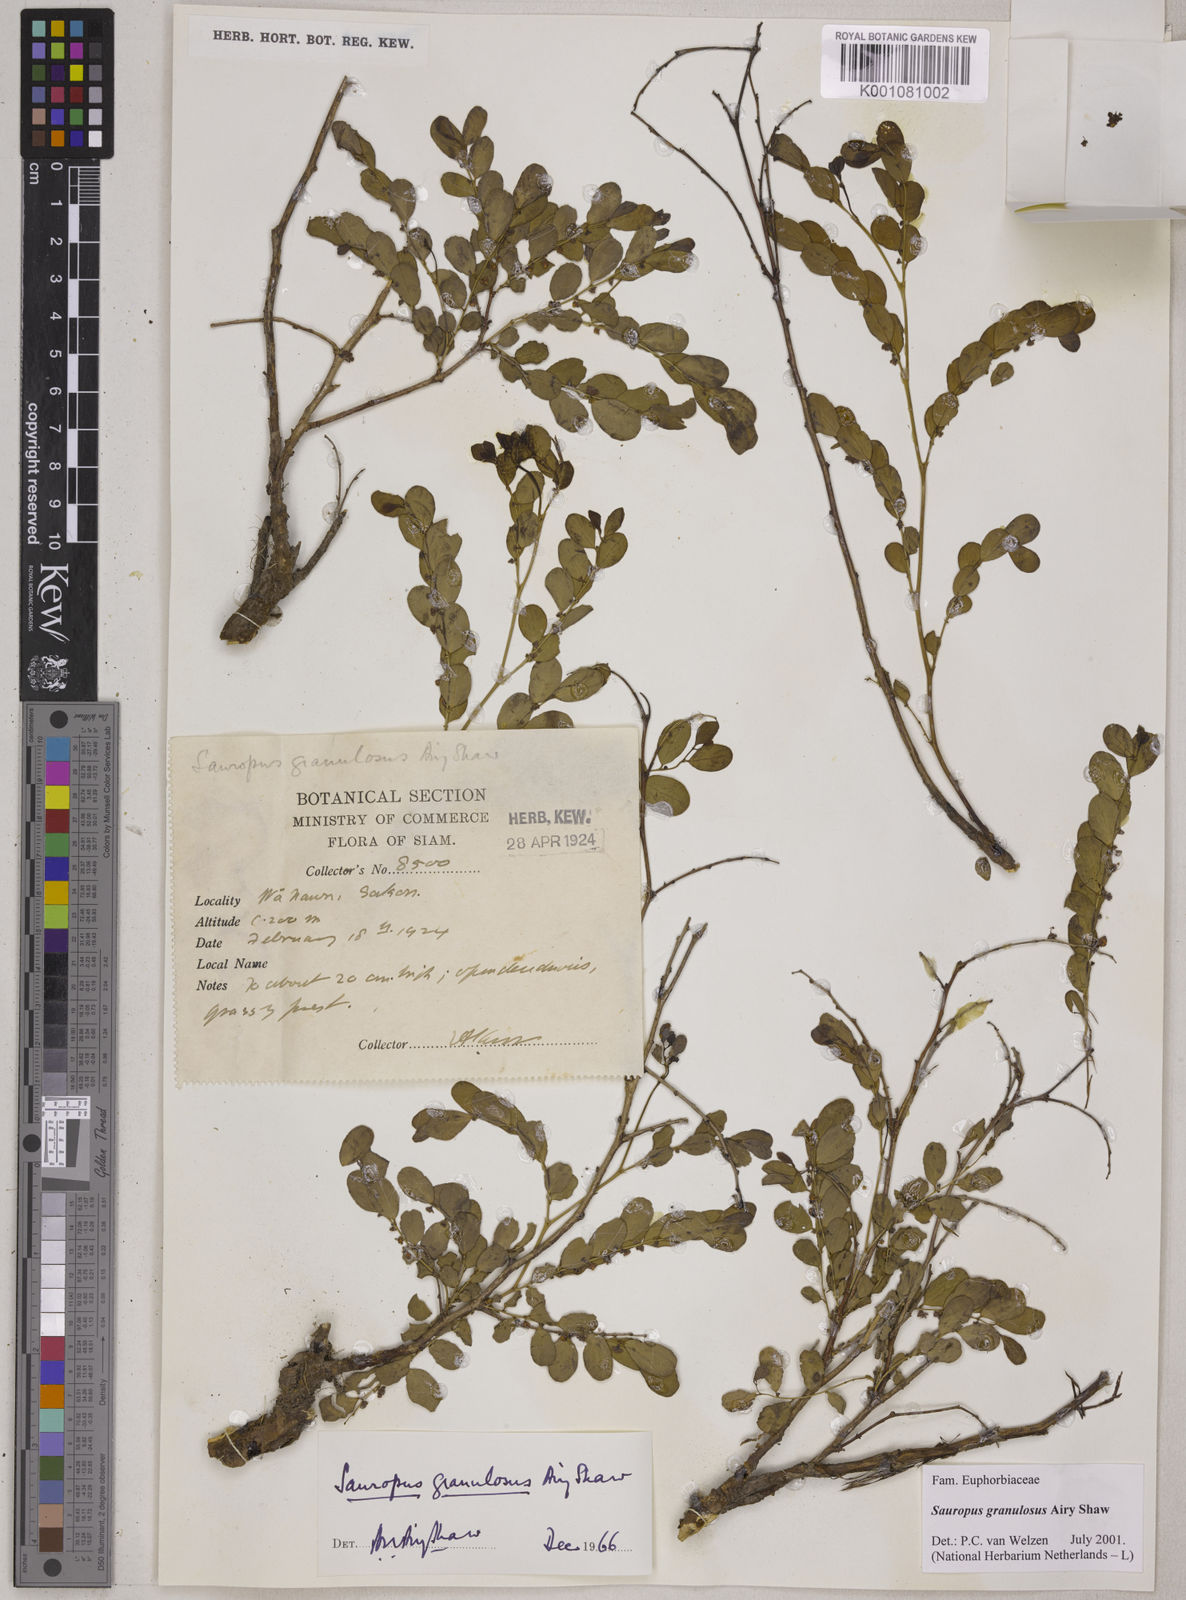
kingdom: Plantae
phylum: Tracheophyta
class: Magnoliopsida
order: Malpighiales
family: Phyllanthaceae
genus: Breynia
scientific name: Breynia granulosa
